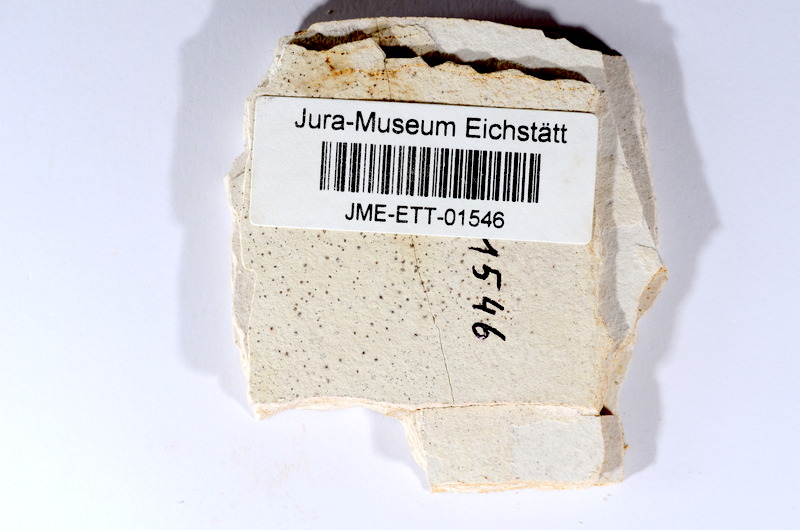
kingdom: Animalia
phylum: Chordata
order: Salmoniformes
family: Orthogonikleithridae
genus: Orthogonikleithrus
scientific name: Orthogonikleithrus hoelli
